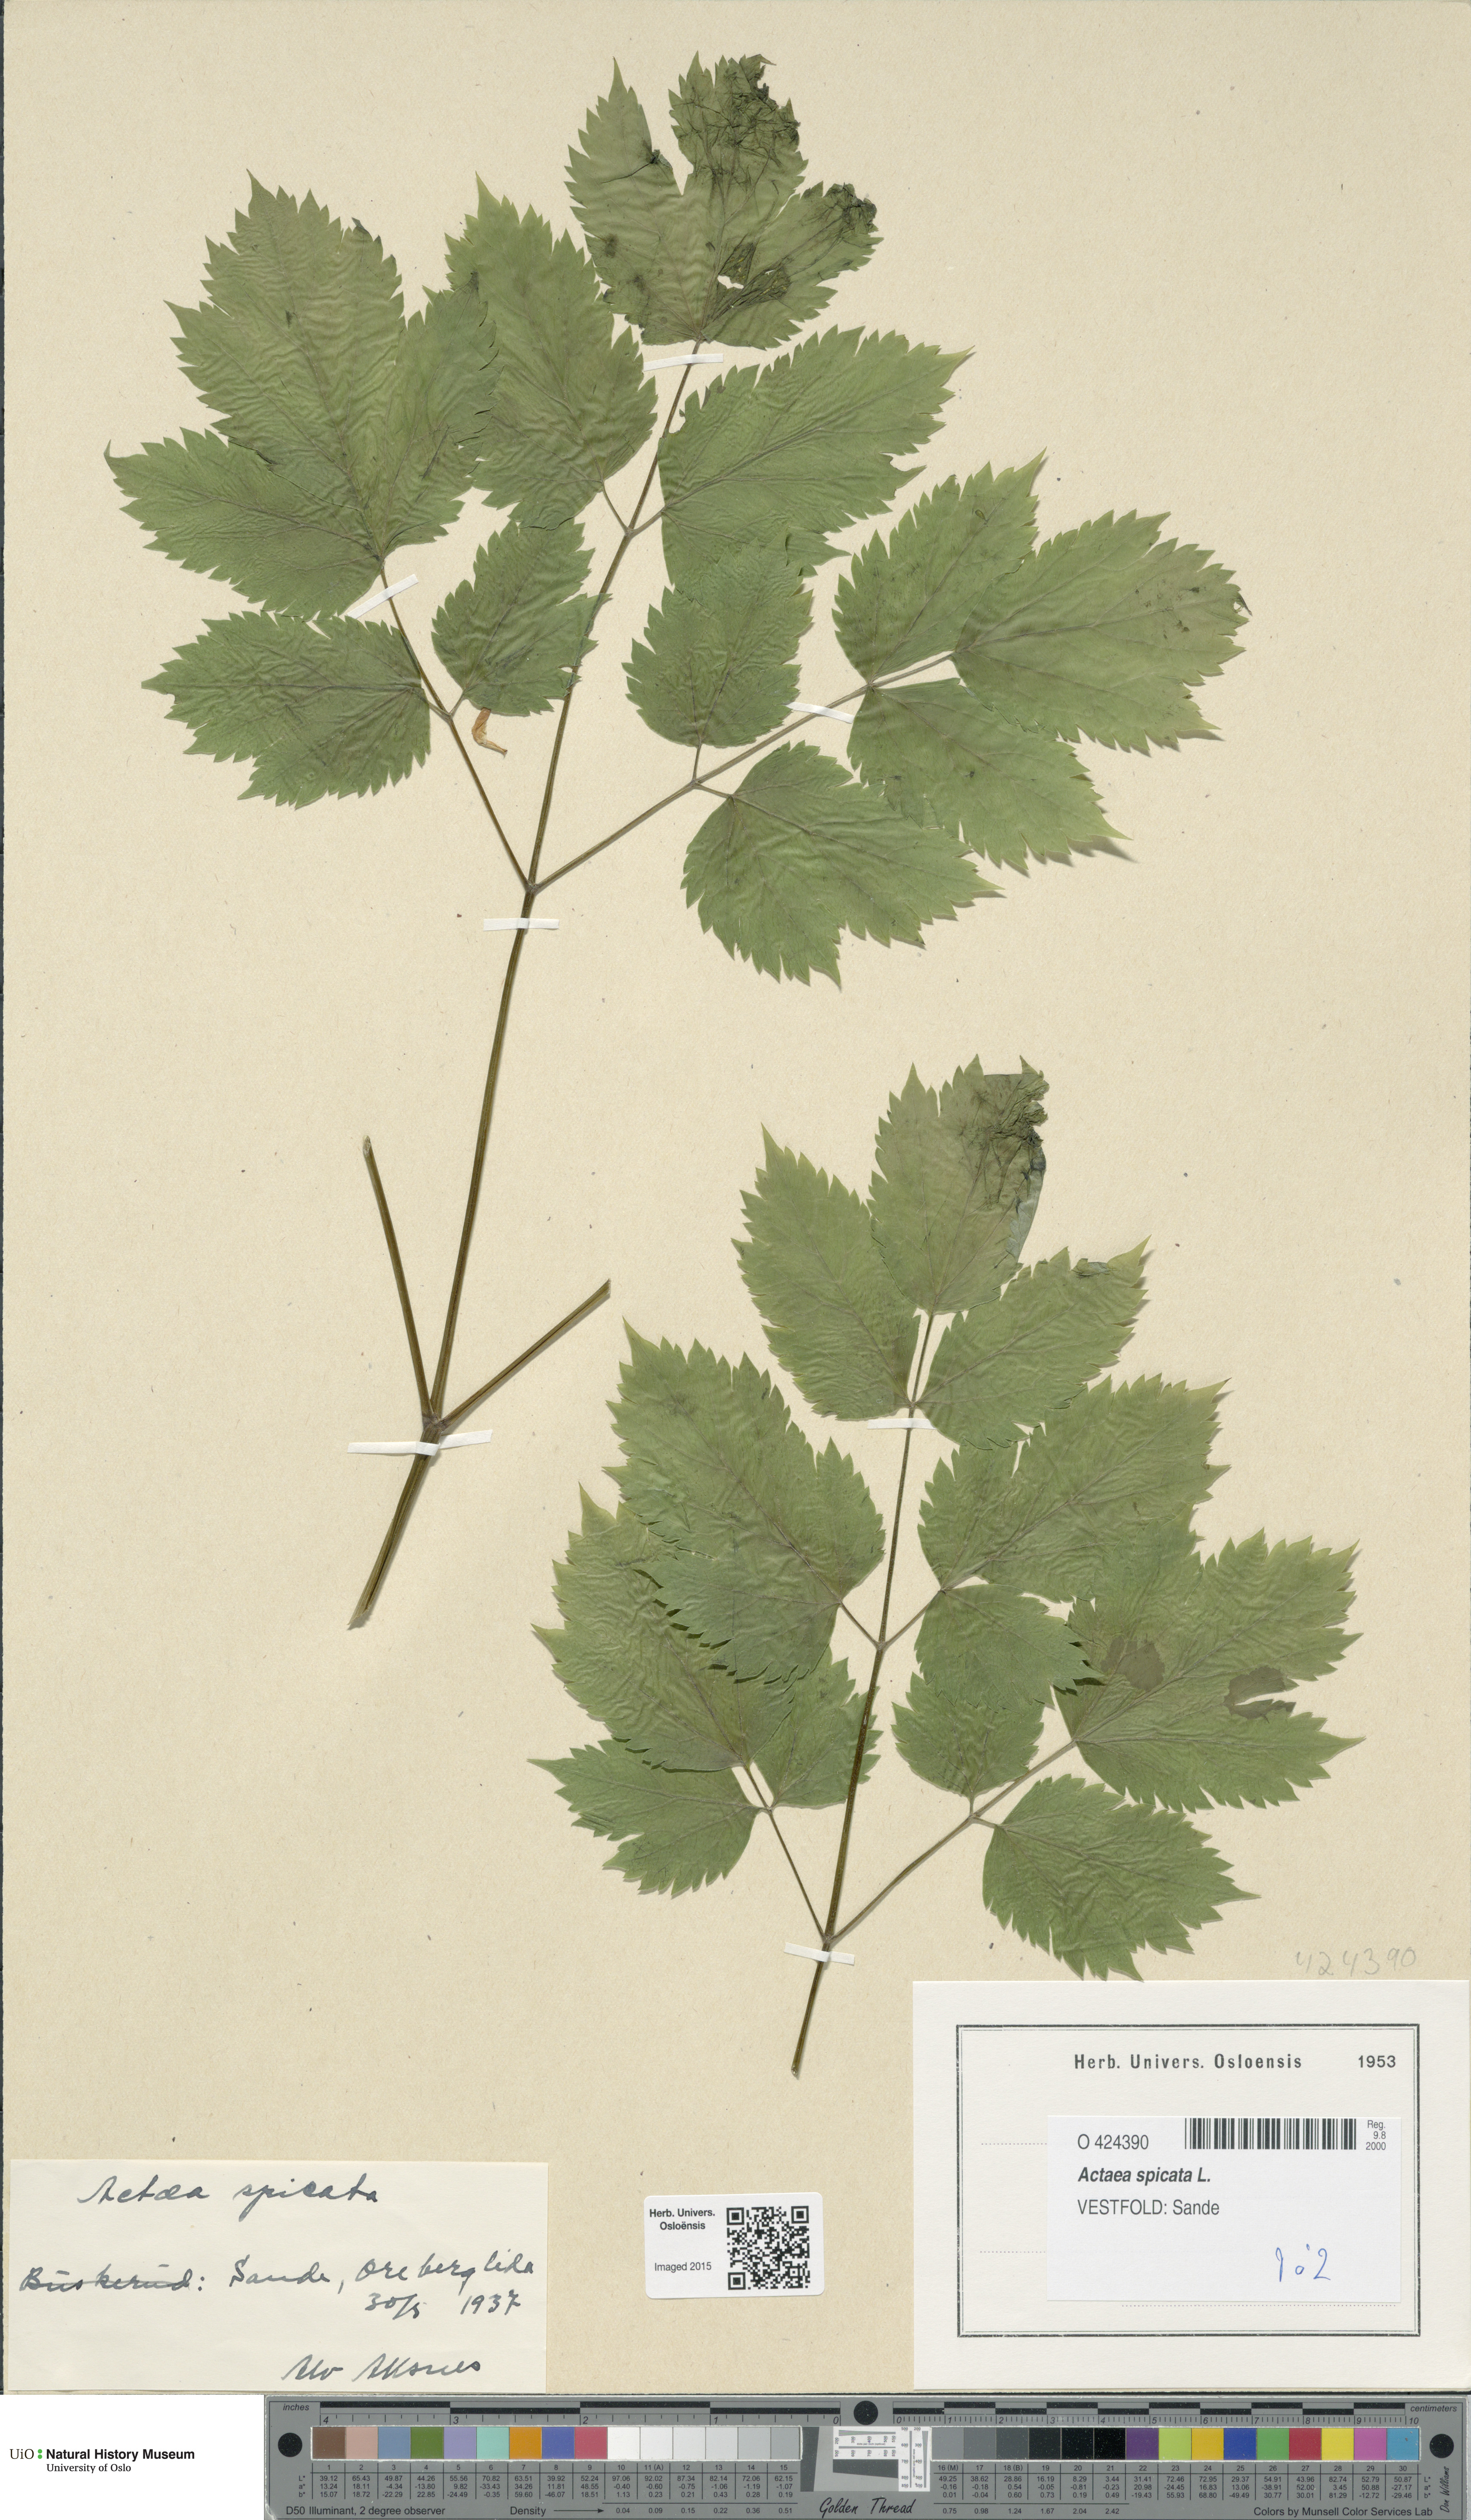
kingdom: Plantae
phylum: Tracheophyta
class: Magnoliopsida
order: Ranunculales
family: Ranunculaceae
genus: Actaea
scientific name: Actaea spicata
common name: Baneberry
